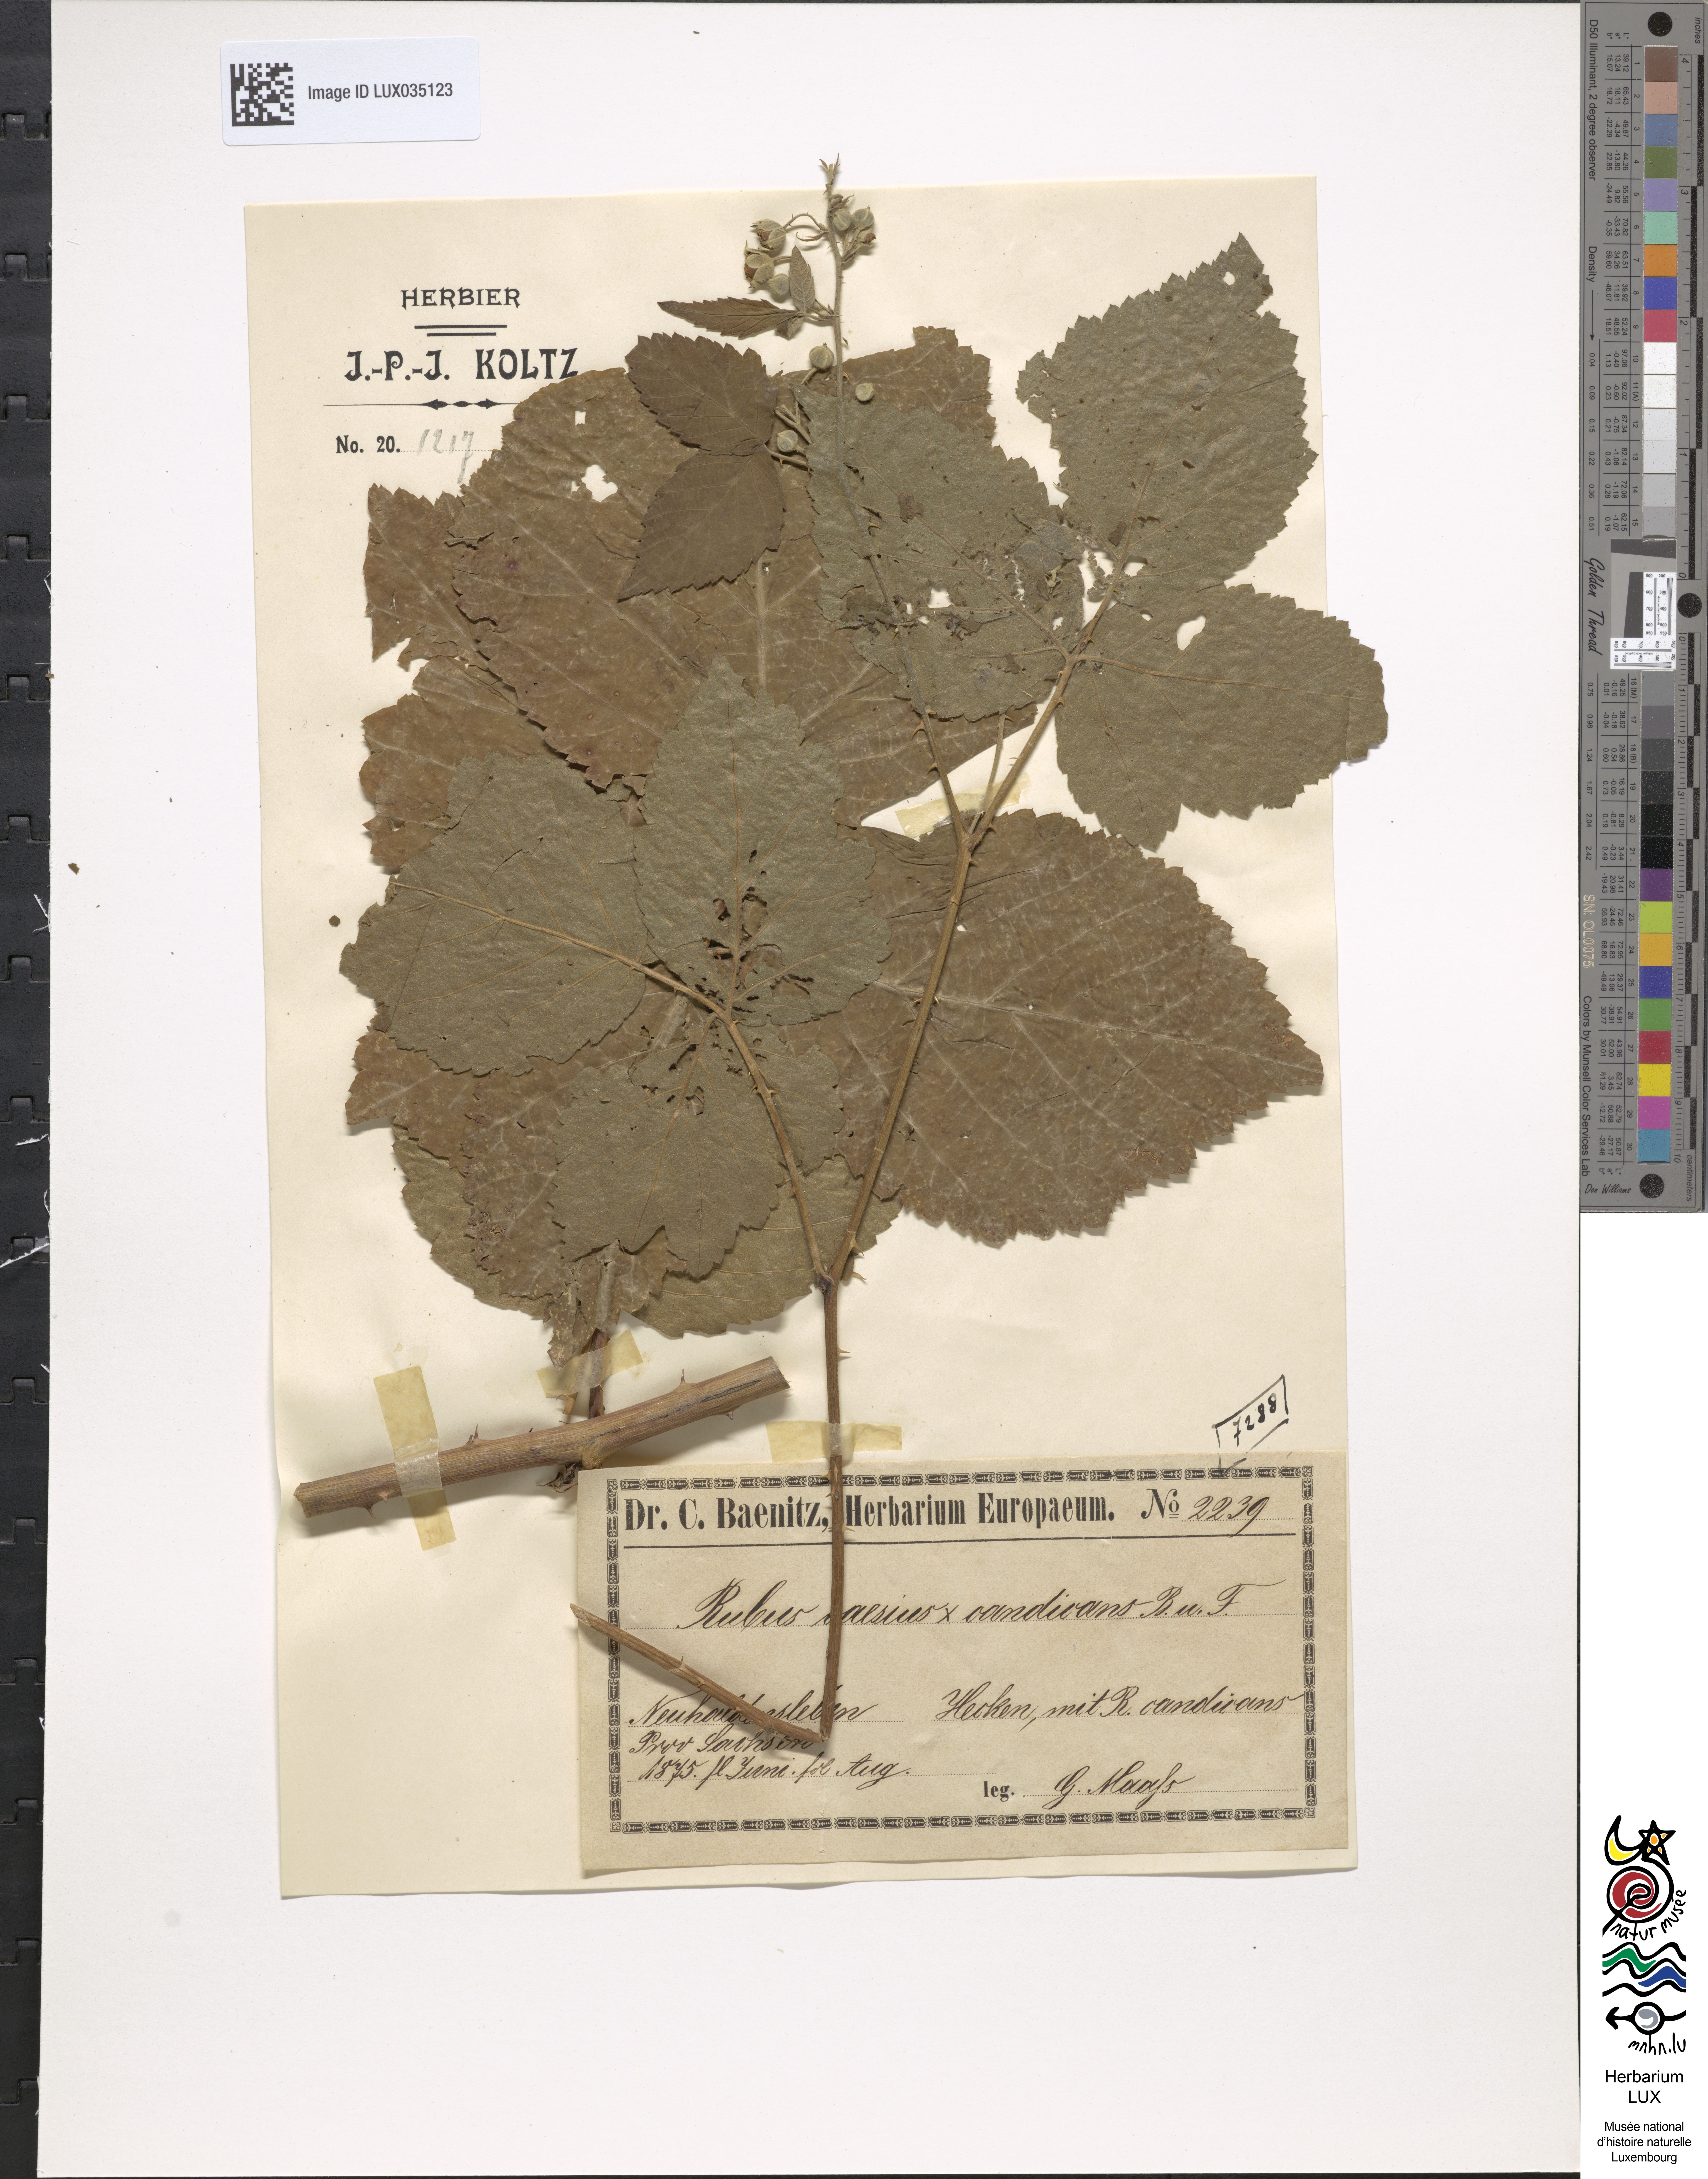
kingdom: Plantae
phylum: Tracheophyta
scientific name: Tracheophyta
